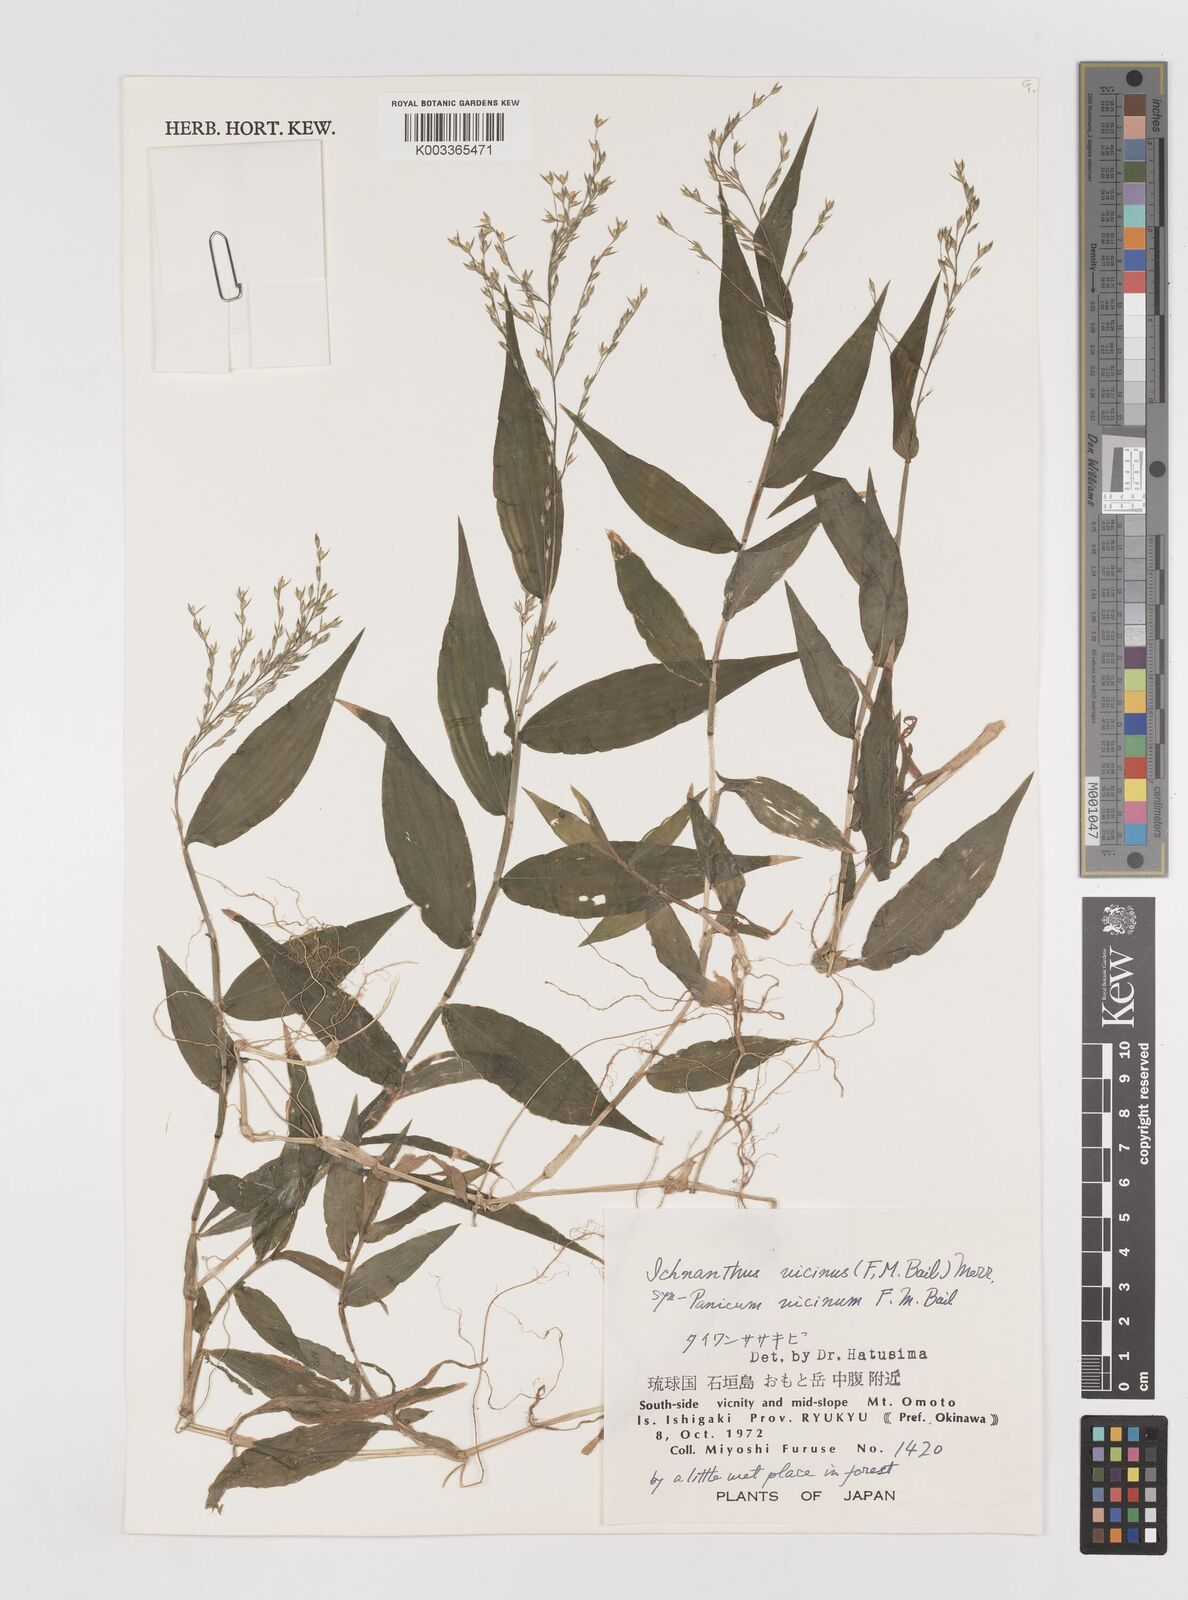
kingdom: Plantae
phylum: Tracheophyta
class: Liliopsida
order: Poales
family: Poaceae
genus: Ichnanthus
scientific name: Ichnanthus pallens
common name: Water grass
